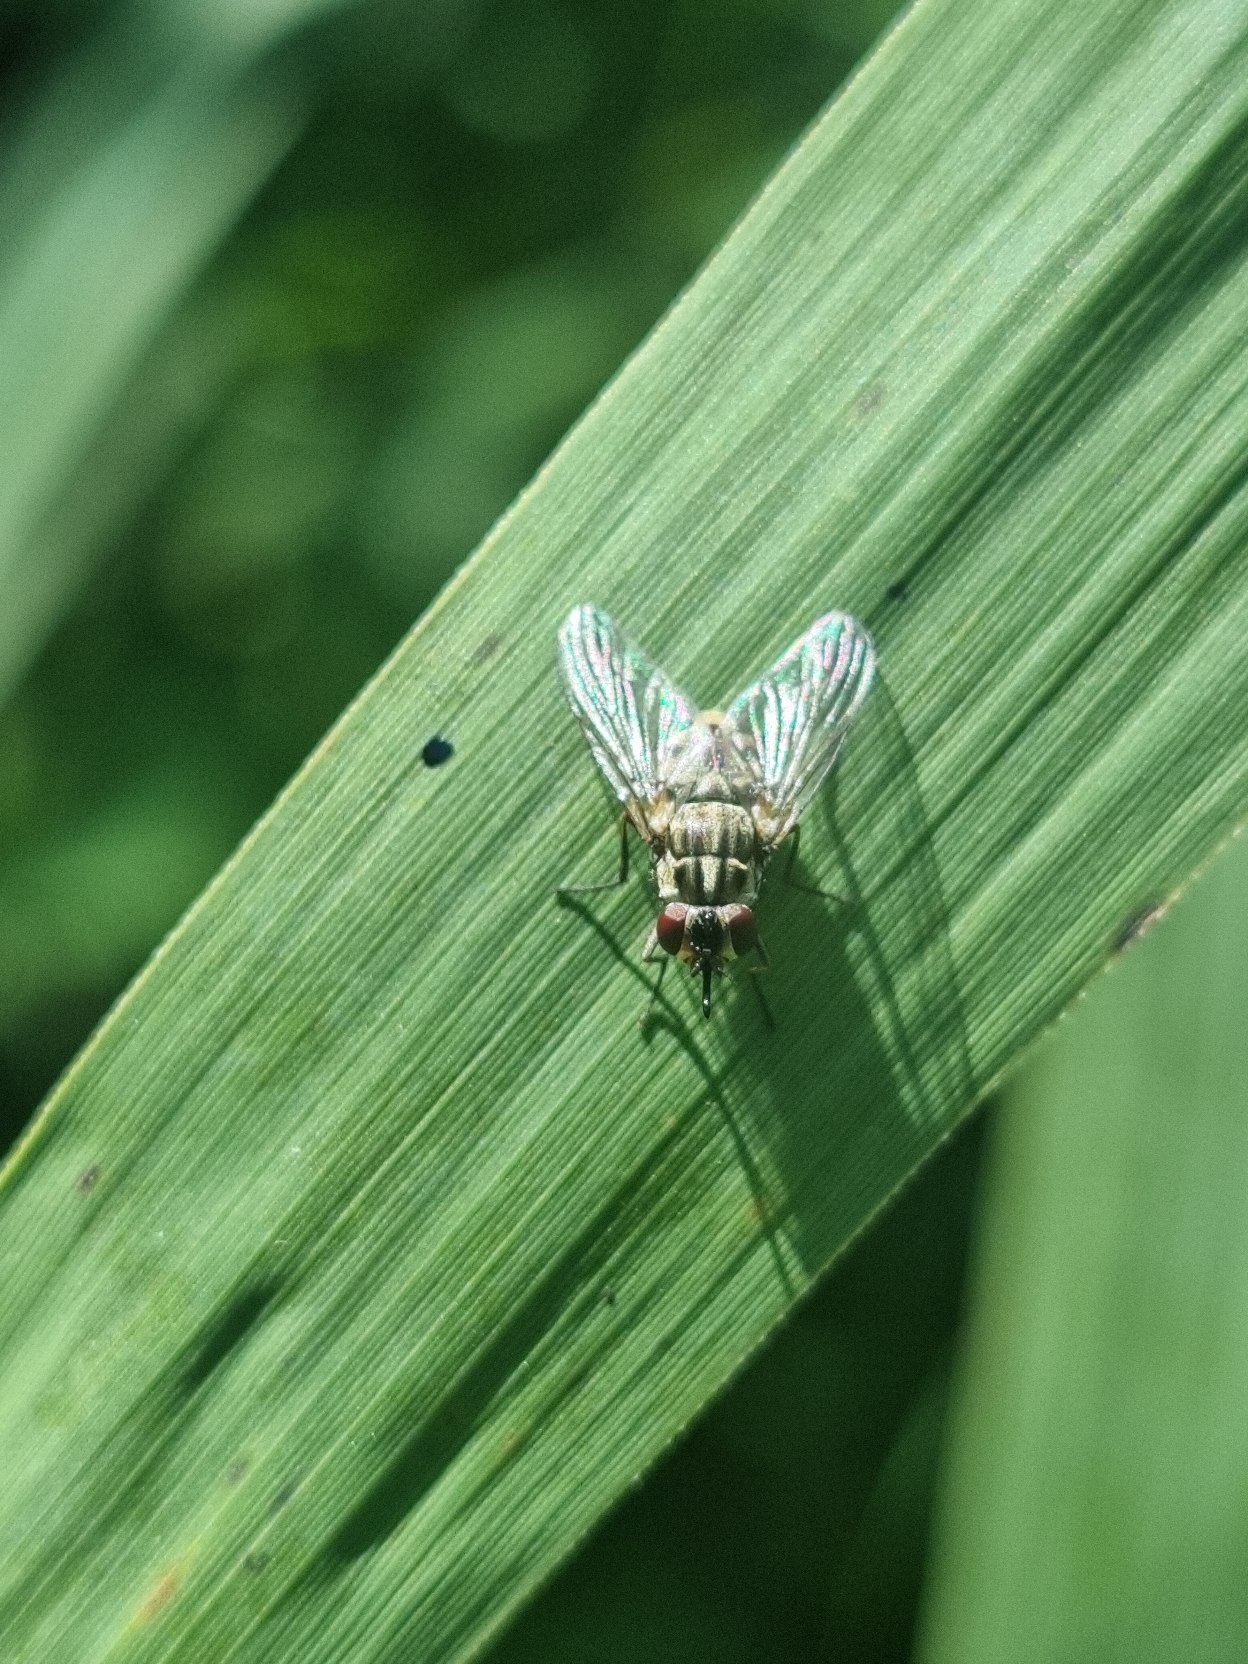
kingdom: Animalia
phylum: Arthropoda
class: Insecta
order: Diptera
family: Muscidae
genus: Stomoxys
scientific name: Stomoxys calcitrans
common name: Stikflue
